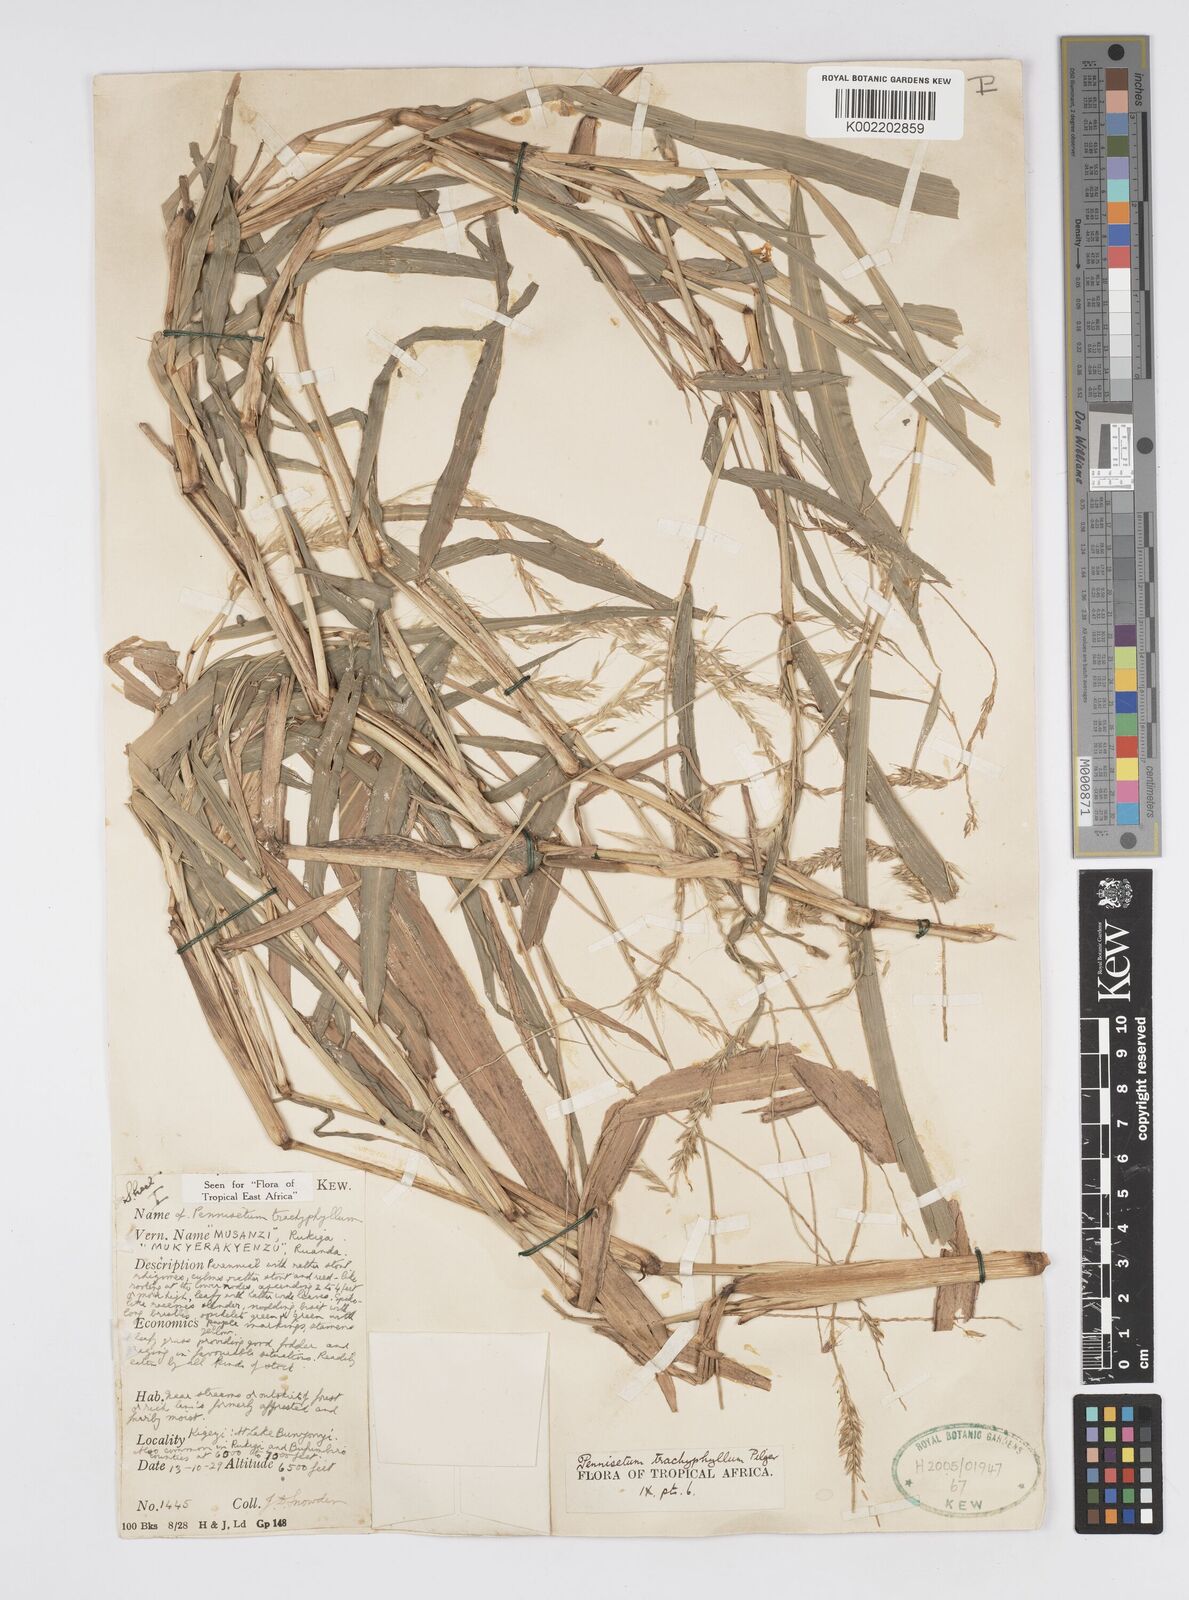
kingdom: Plantae
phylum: Tracheophyta
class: Liliopsida
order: Poales
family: Poaceae
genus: Cenchrus
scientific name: Cenchrus trachyphyllus
